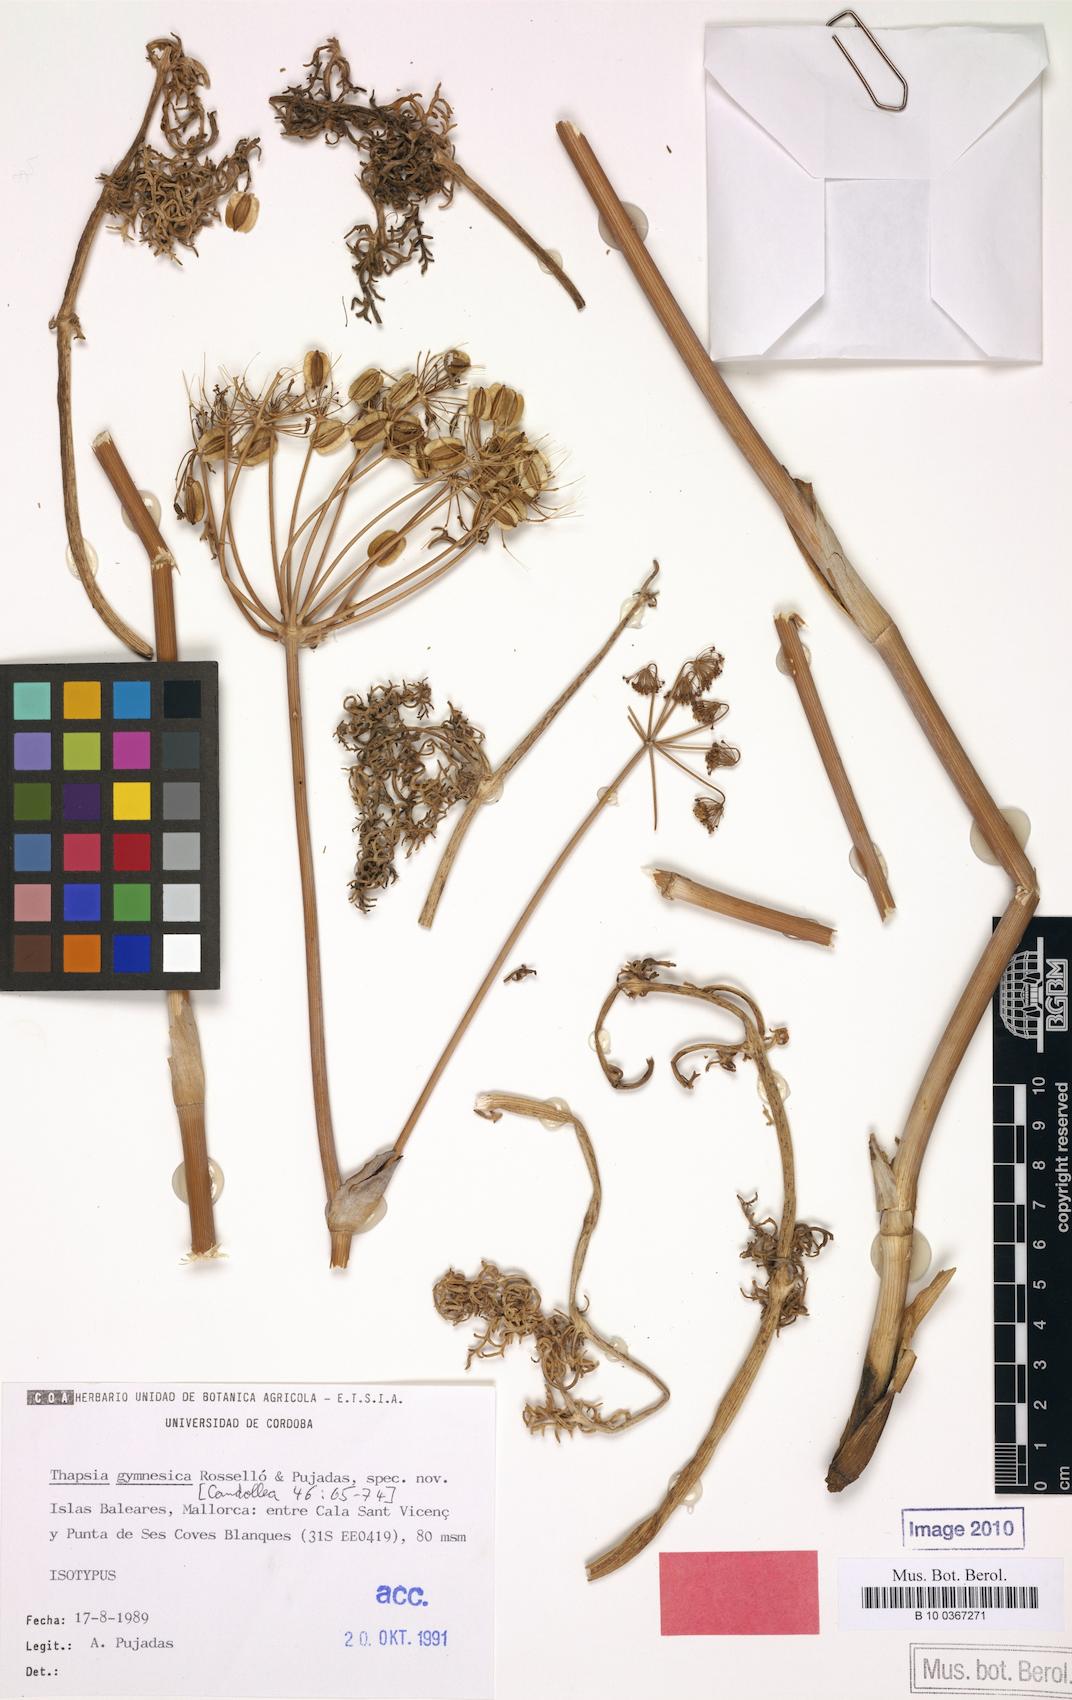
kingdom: Plantae
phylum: Tracheophyta
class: Magnoliopsida
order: Apiales
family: Apiaceae
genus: Thapsia
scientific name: Thapsia gymnesica
